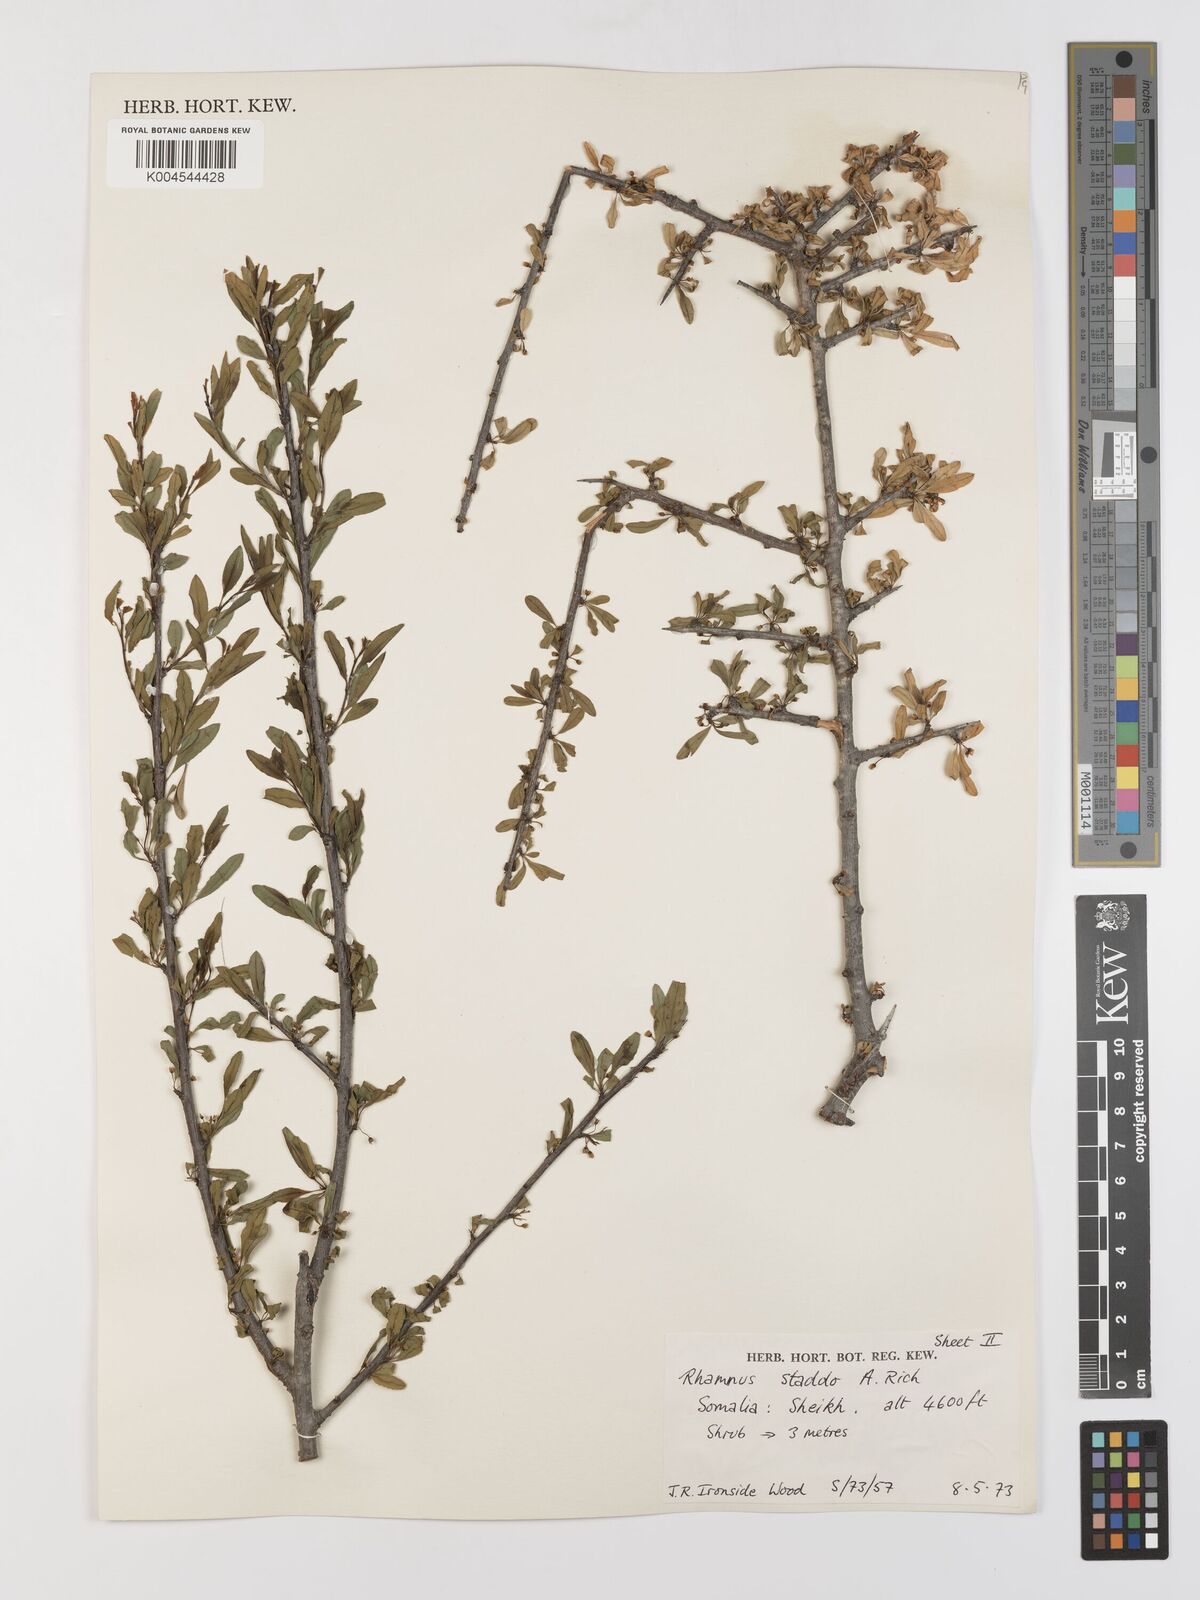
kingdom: Plantae
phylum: Tracheophyta
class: Magnoliopsida
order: Rosales
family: Rhamnaceae
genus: Rhamnus
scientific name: Rhamnus staddo
